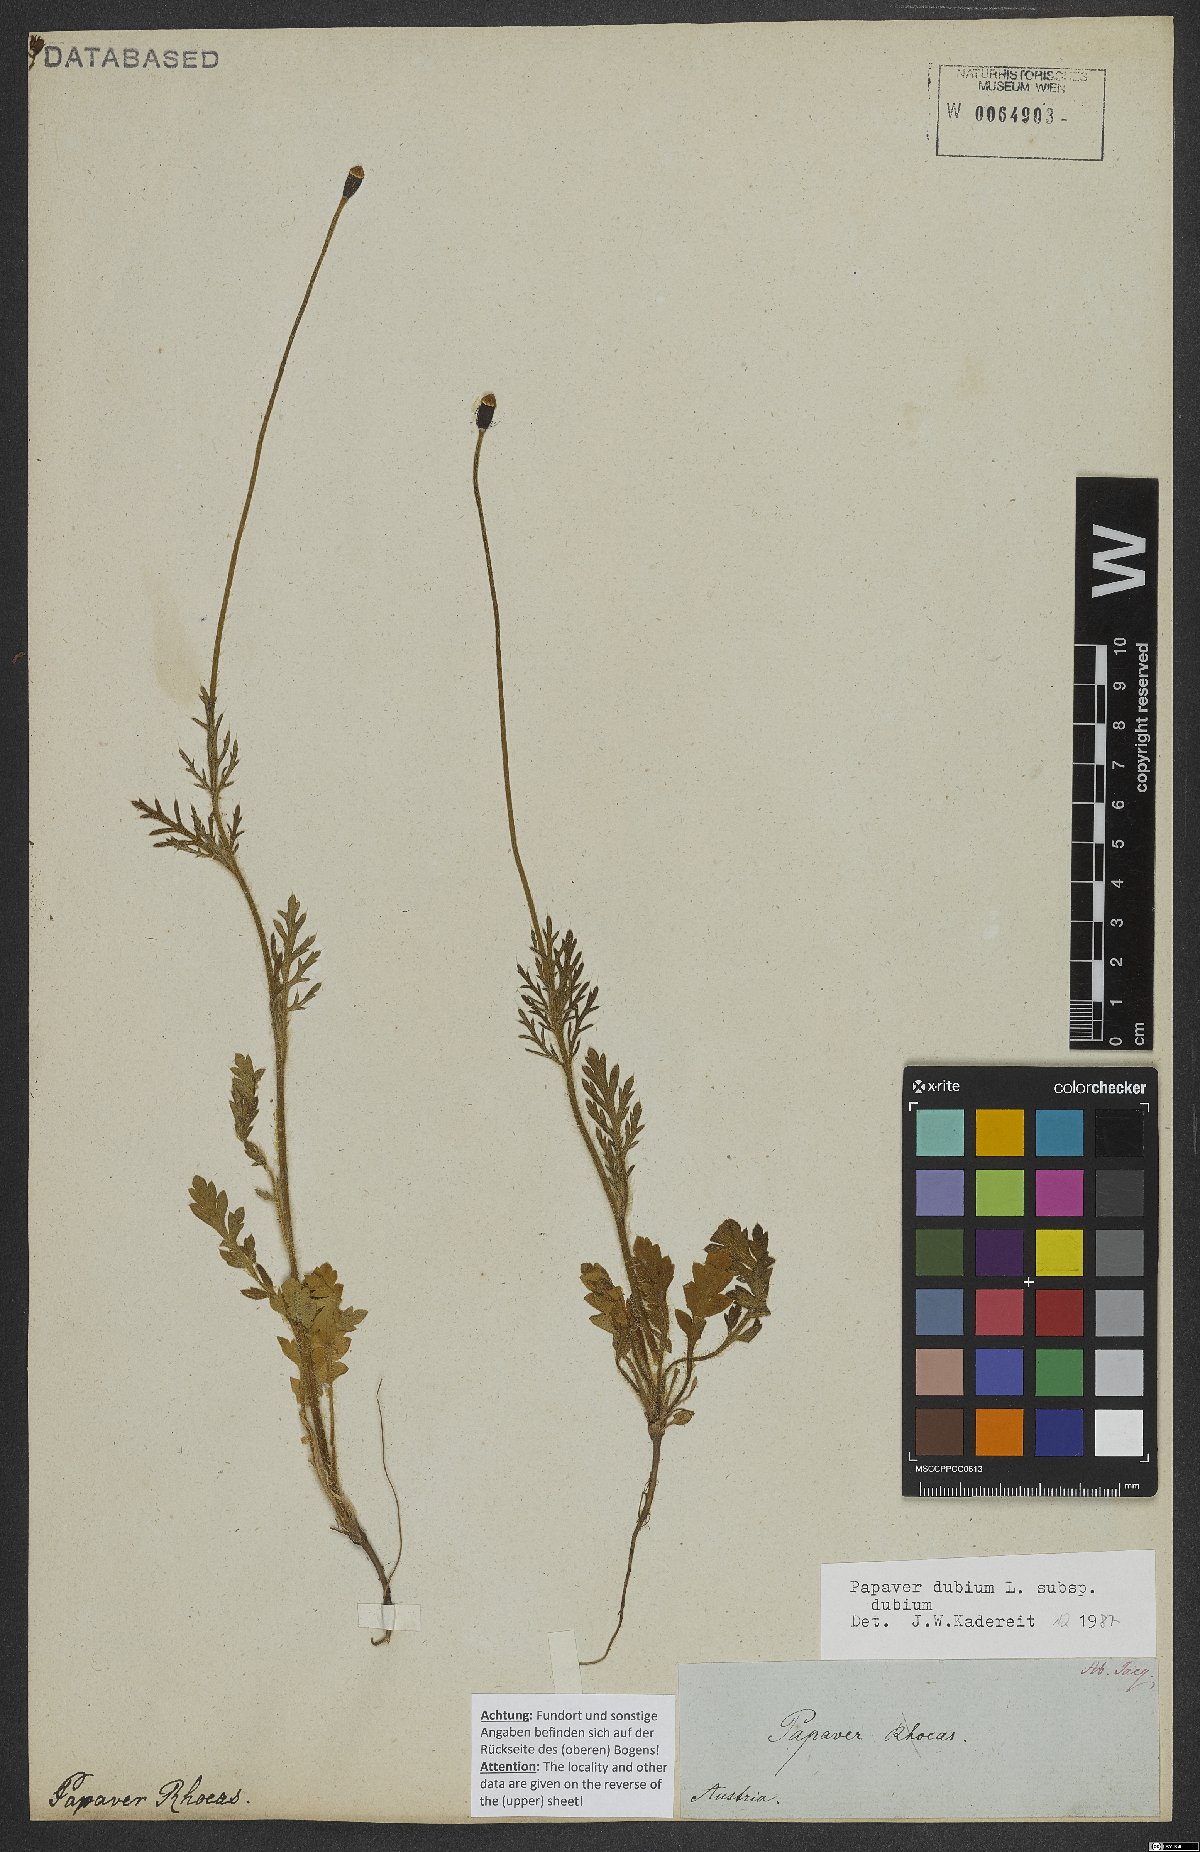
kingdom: Plantae
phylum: Tracheophyta
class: Magnoliopsida
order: Ranunculales
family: Papaveraceae
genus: Papaver
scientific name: Papaver dubium
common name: Long-headed poppy
